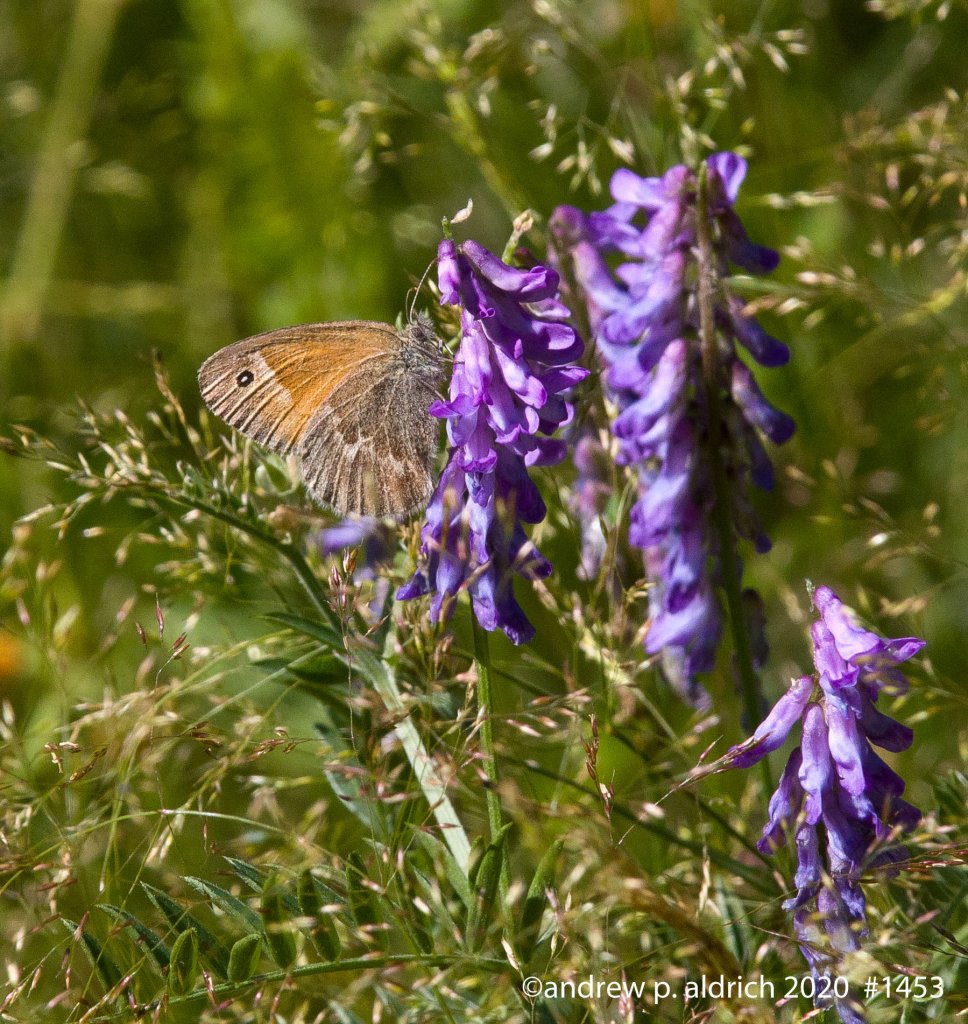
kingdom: Animalia
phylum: Arthropoda
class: Insecta
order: Lepidoptera
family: Nymphalidae
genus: Coenonympha
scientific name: Coenonympha tullia
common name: Large Heath
